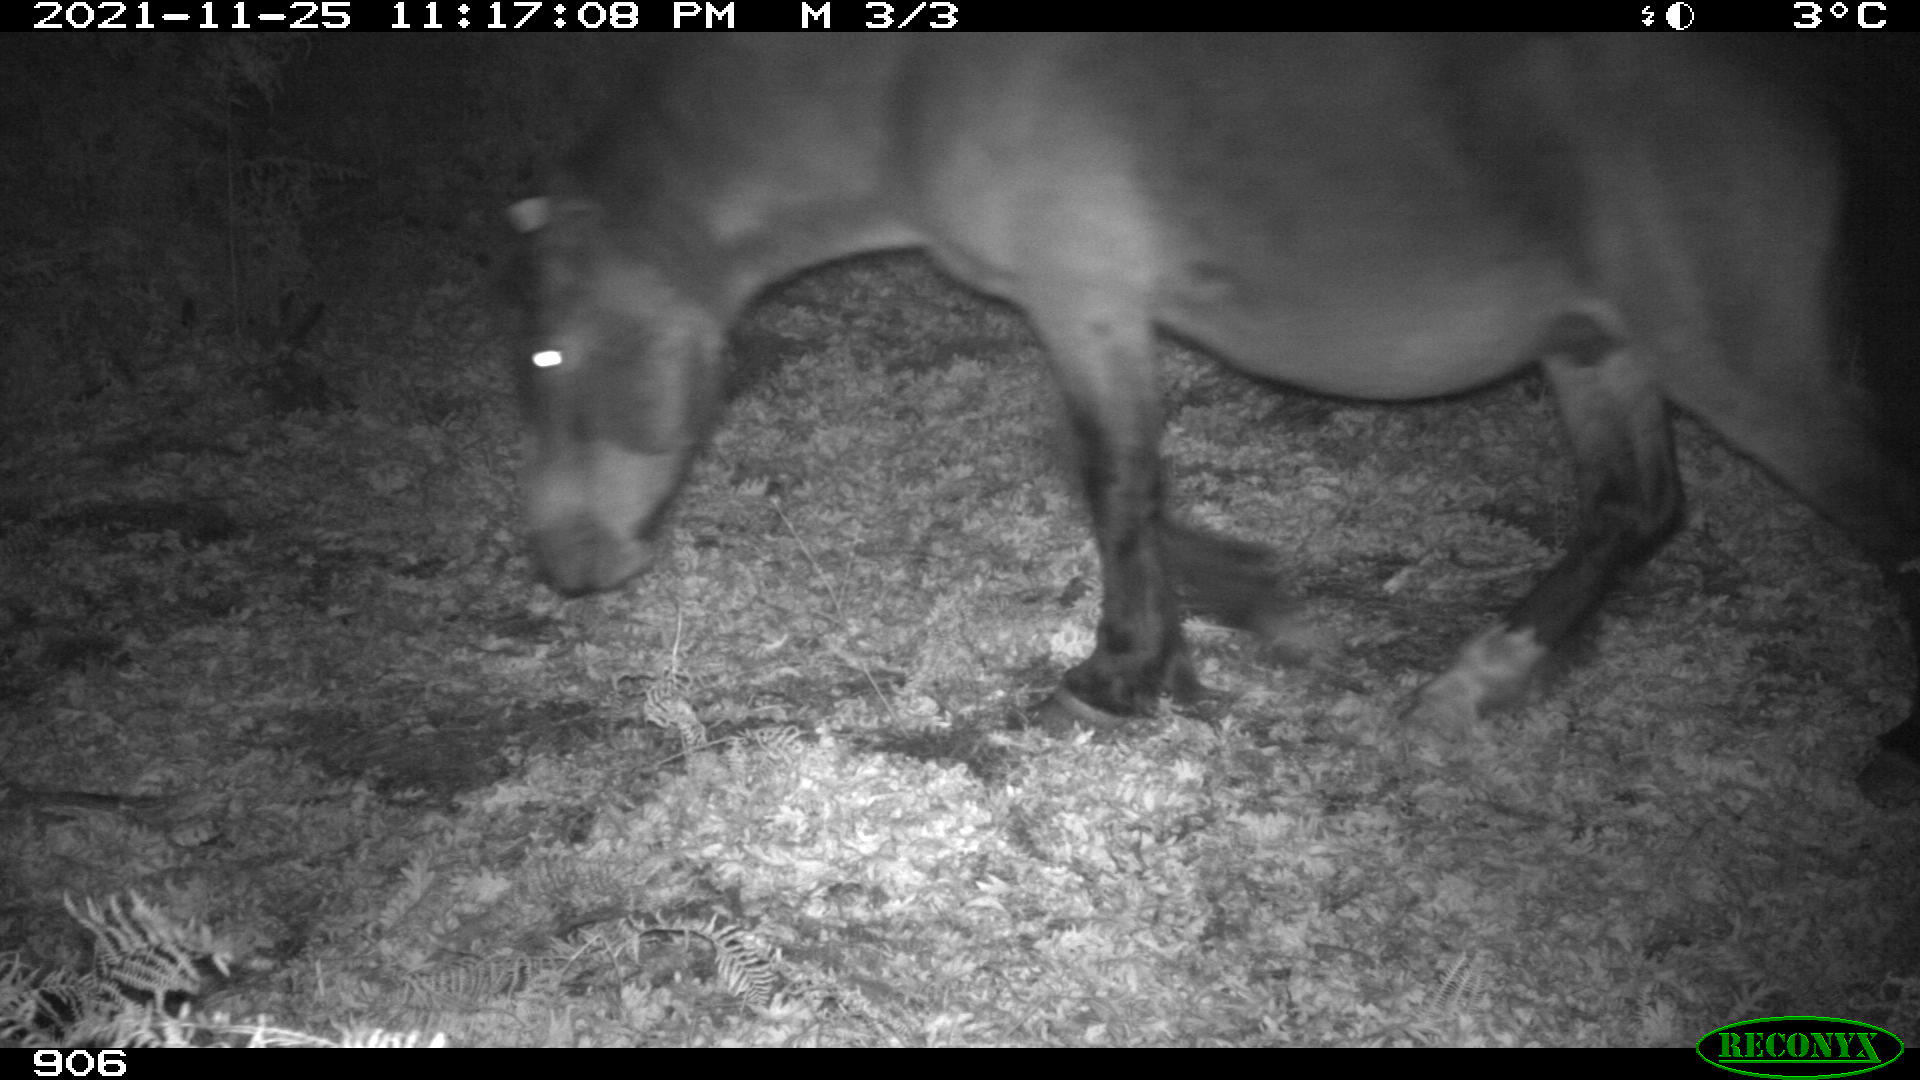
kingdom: Animalia
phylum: Chordata
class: Mammalia
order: Perissodactyla
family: Equidae
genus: Equus
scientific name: Equus caballus
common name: Horse
